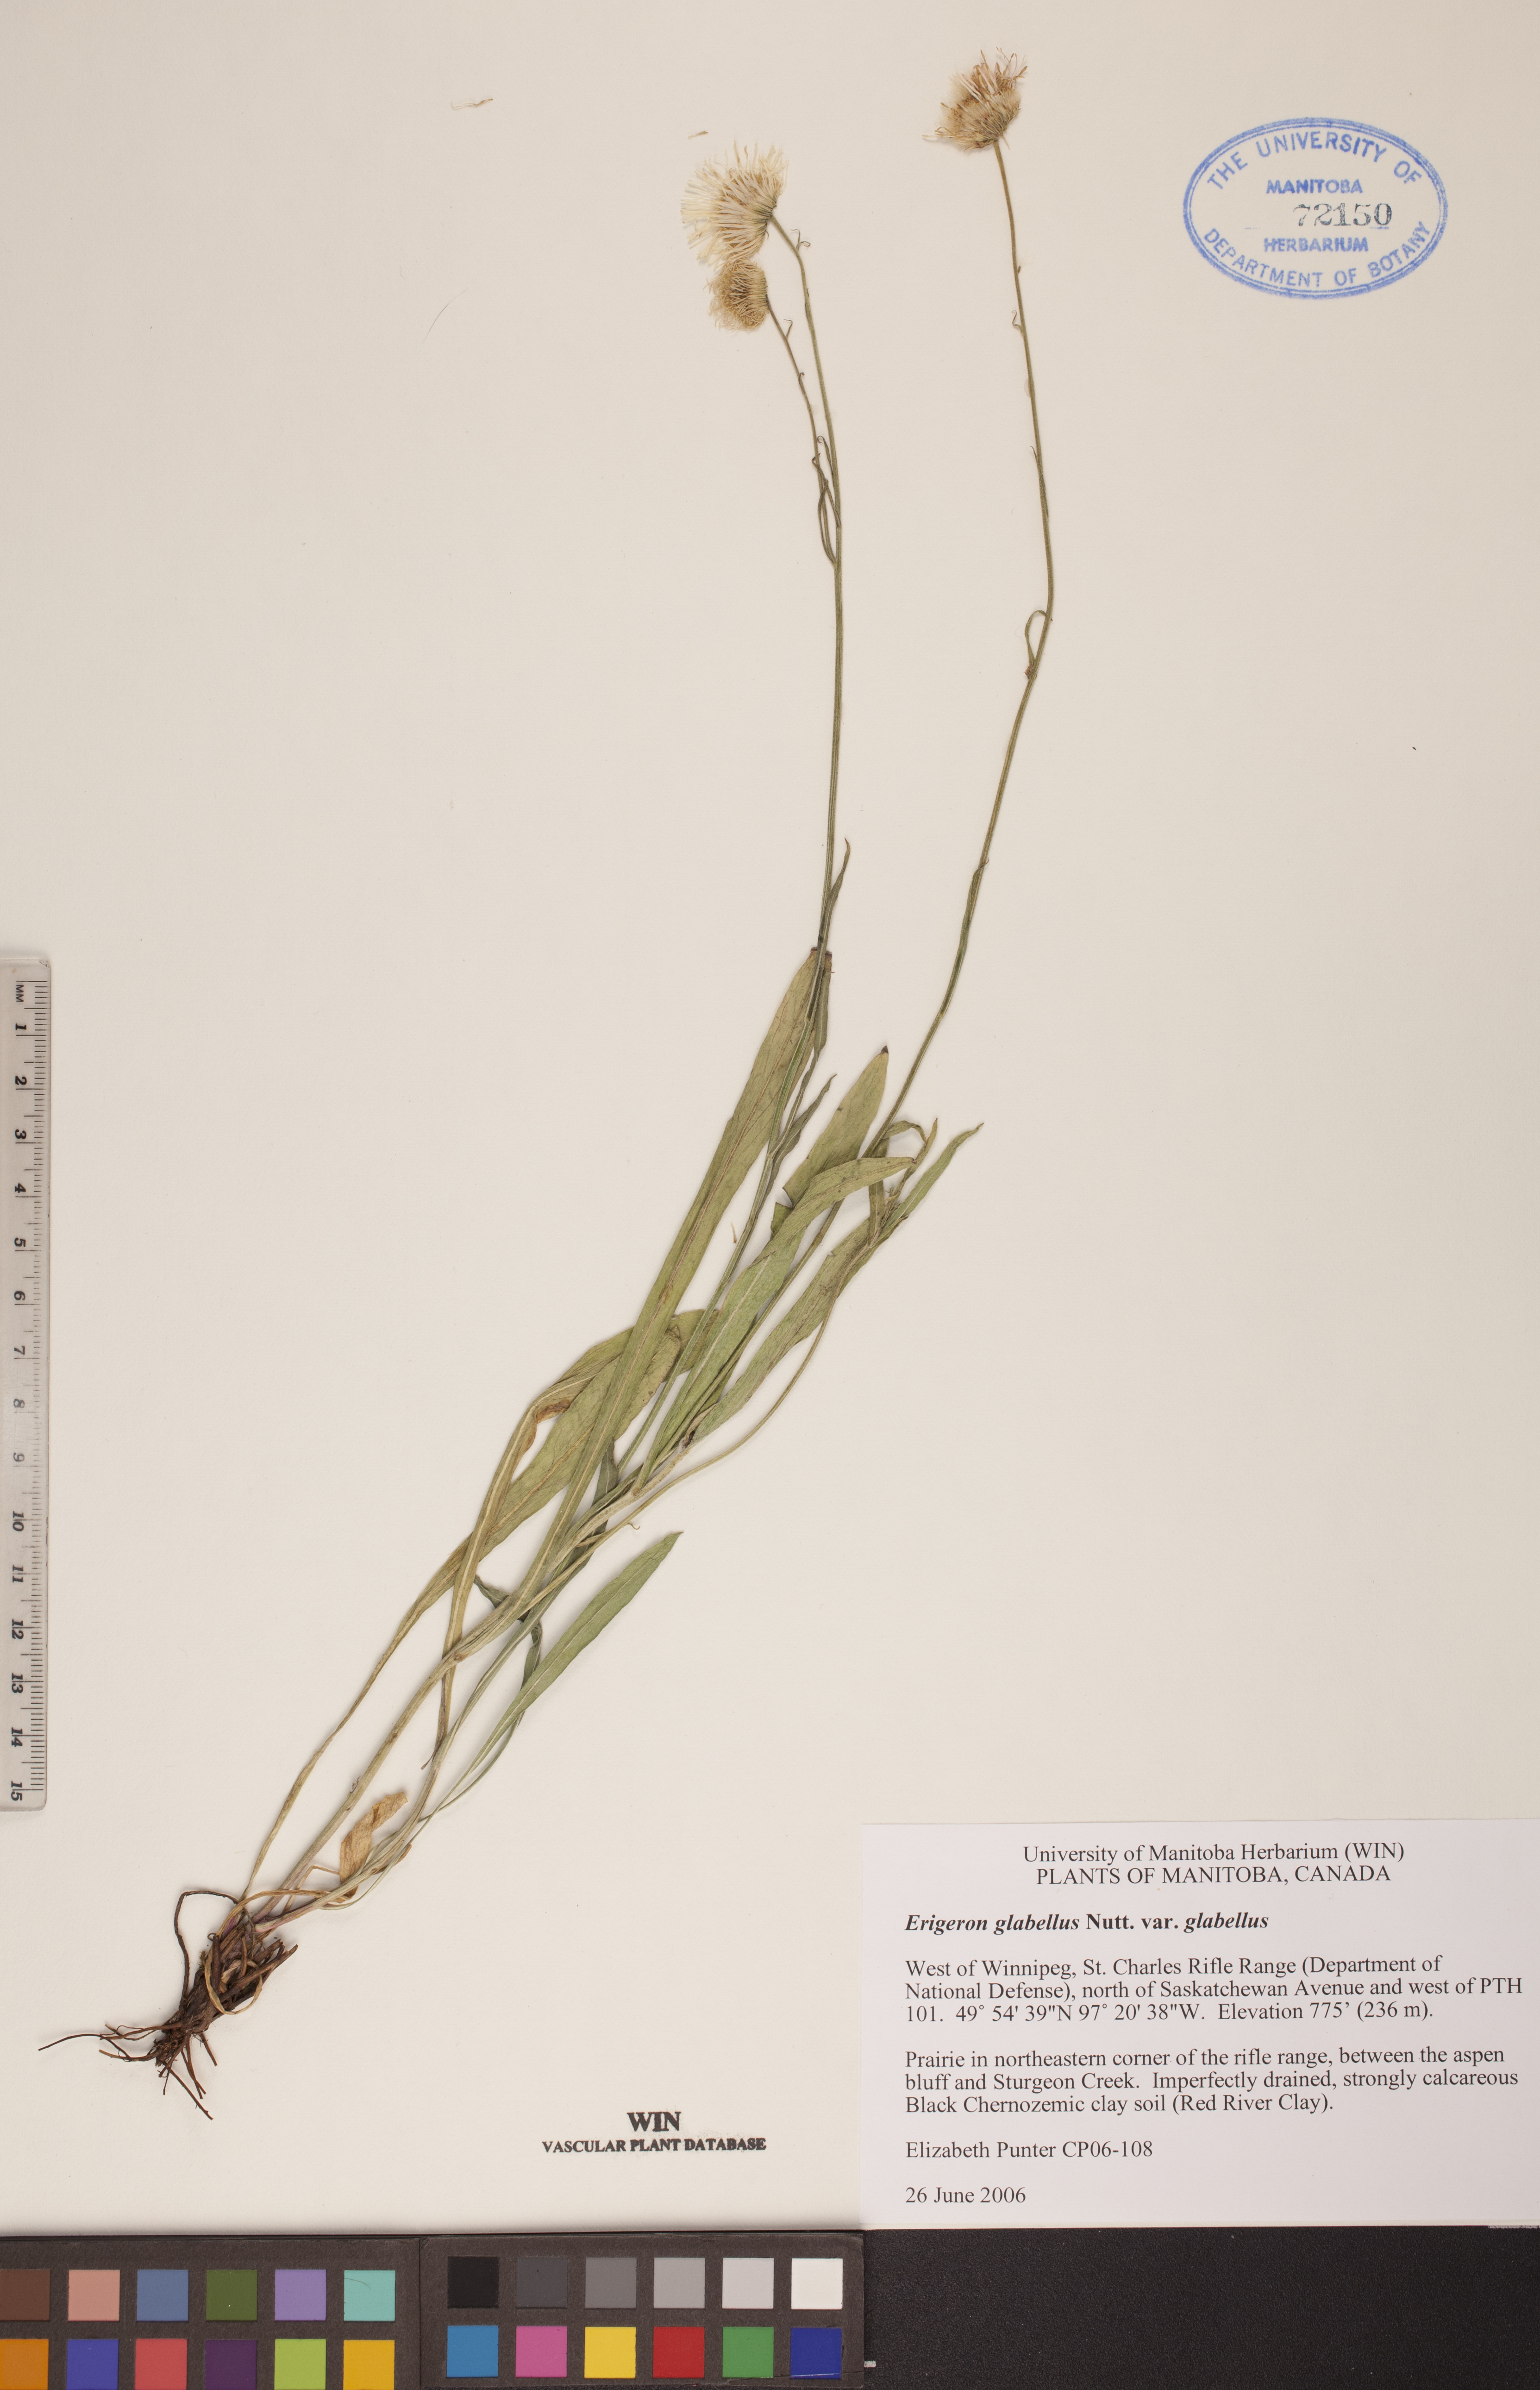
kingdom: Plantae
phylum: Tracheophyta
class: Magnoliopsida
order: Asterales
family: Asteraceae
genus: Erigeron
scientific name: Erigeron glabellus
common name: Smooth fleabane
